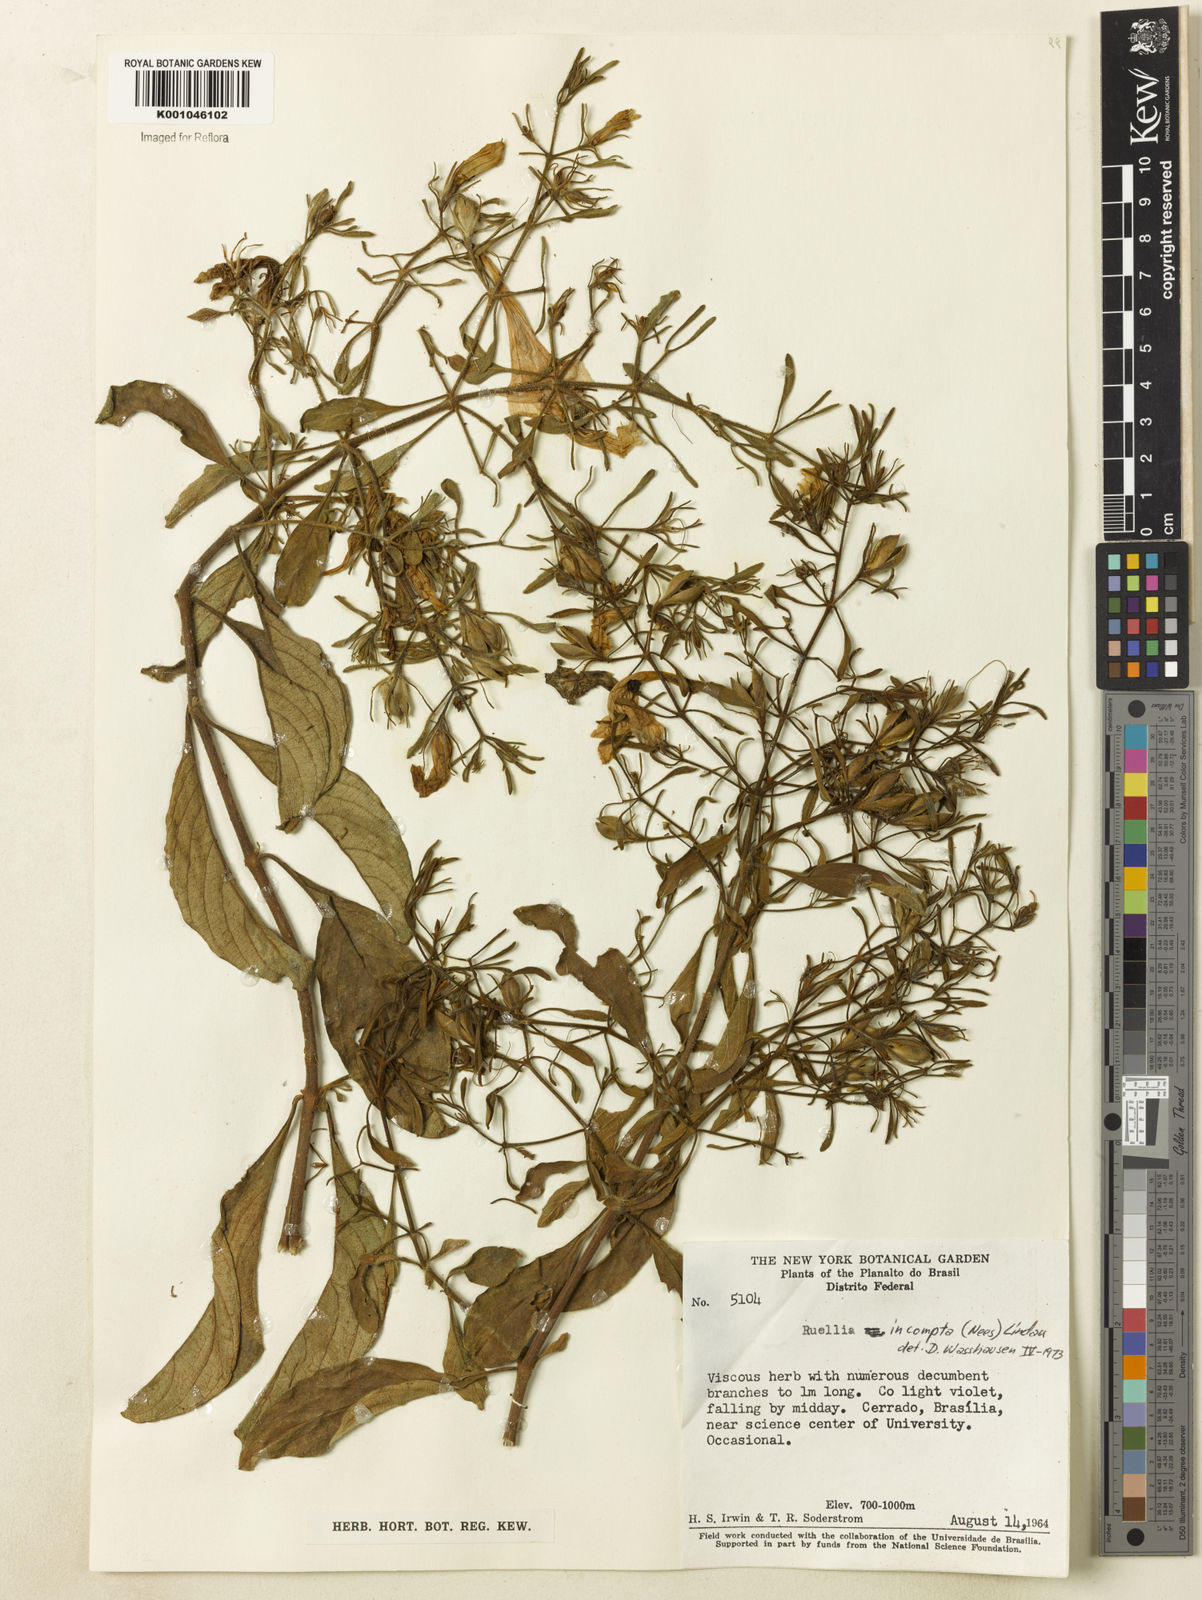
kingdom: Plantae
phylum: Tracheophyta
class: Magnoliopsida
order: Lamiales
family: Acanthaceae
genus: Ruellia
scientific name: Ruellia
